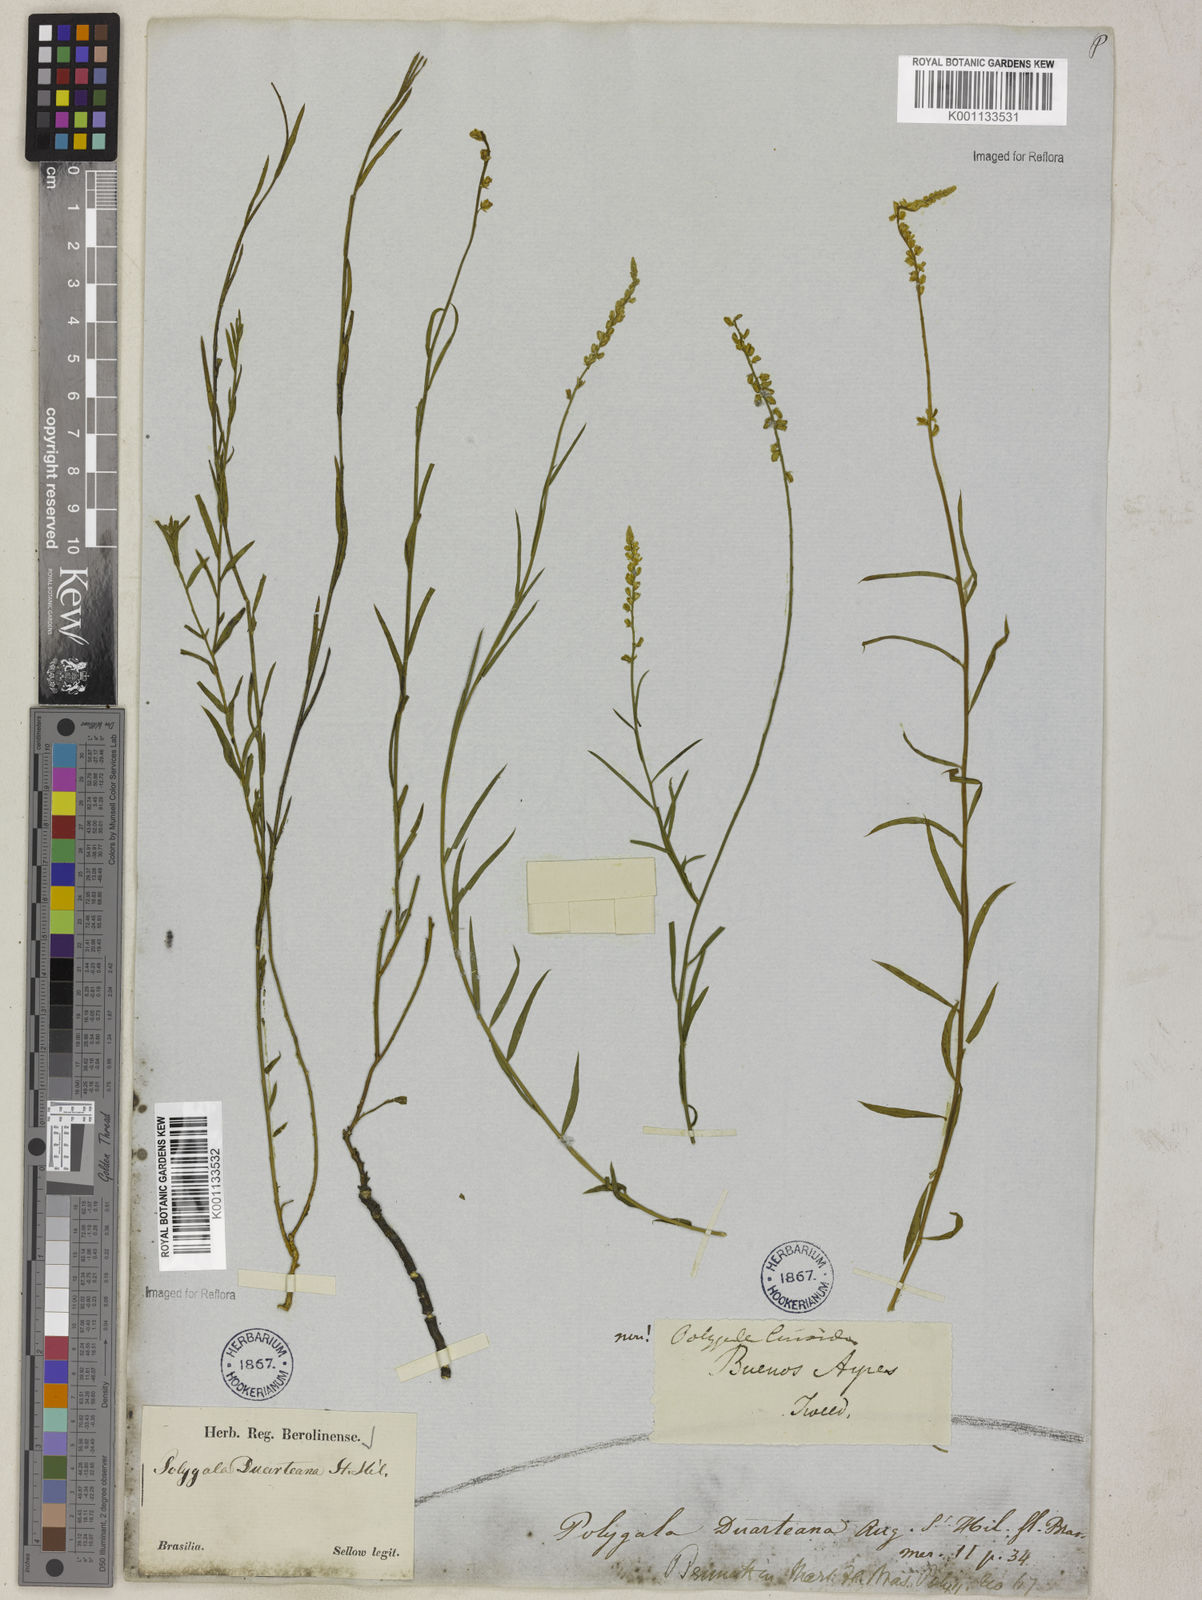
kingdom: Plantae
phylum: Tracheophyta
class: Magnoliopsida
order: Fabales
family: Polygalaceae
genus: Polygala
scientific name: Polygala duarteana
